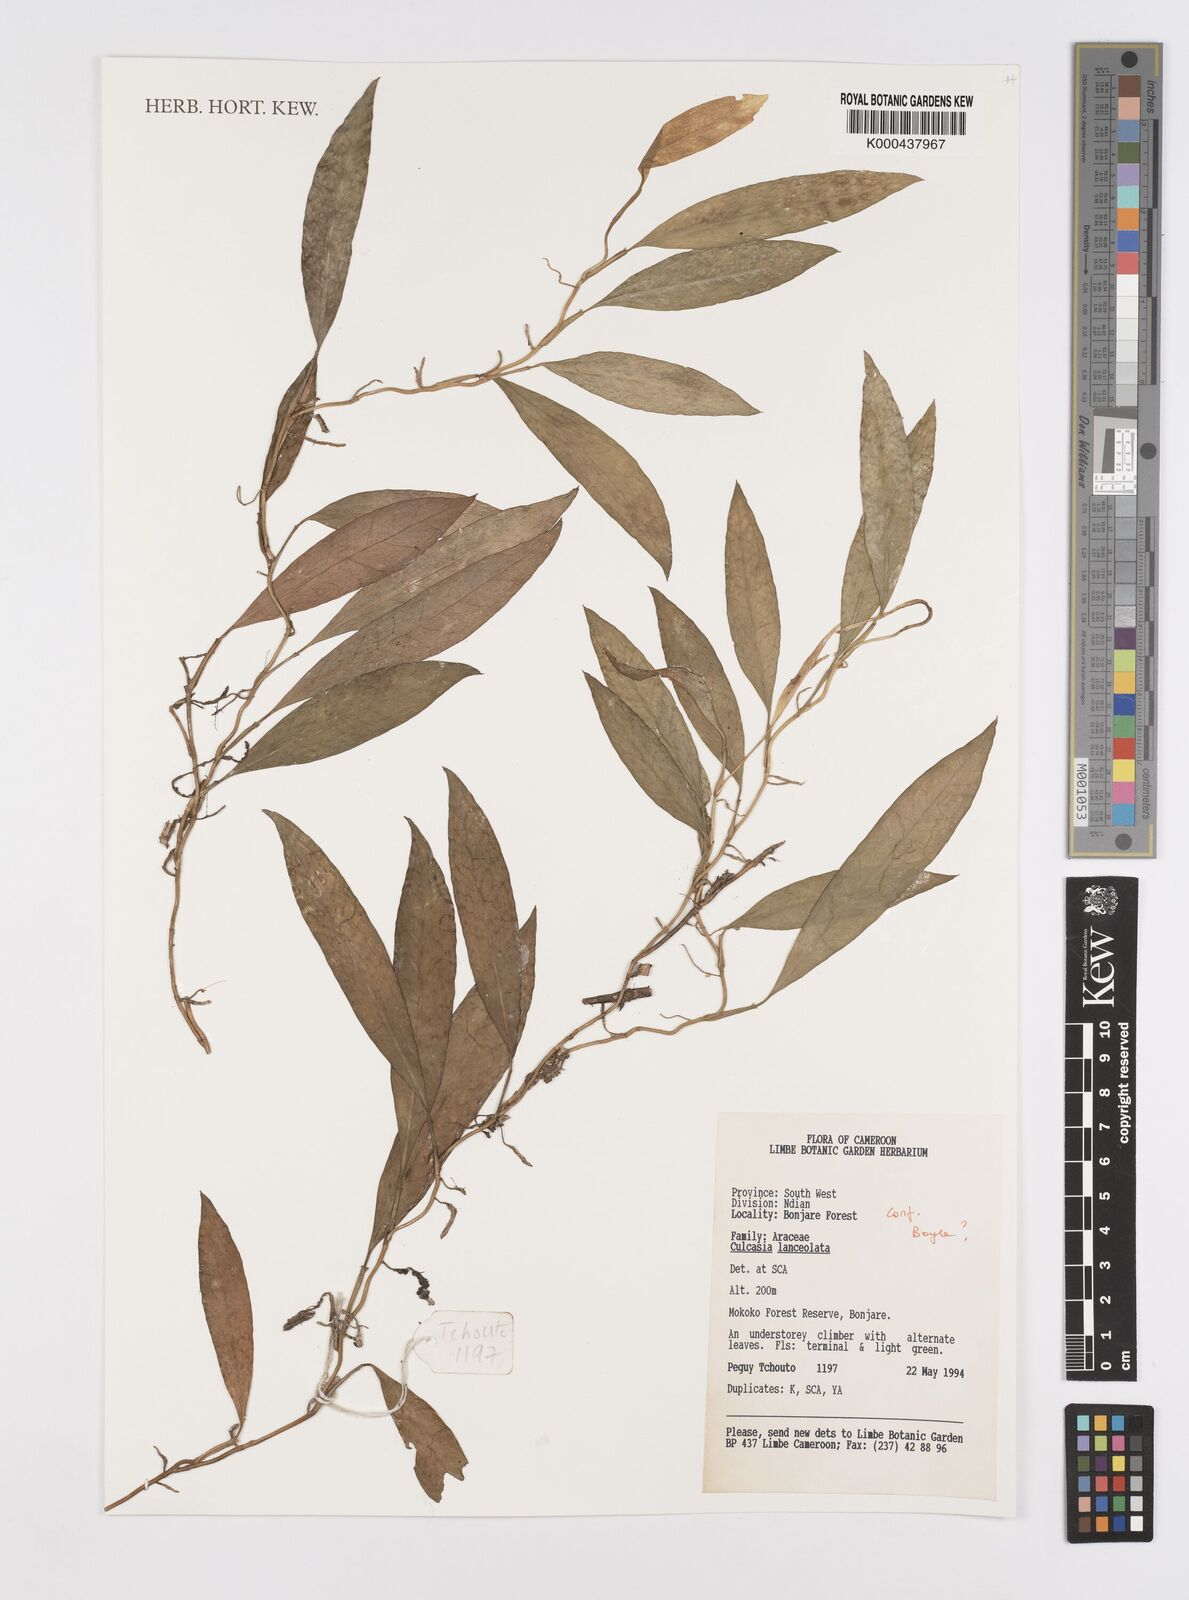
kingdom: Plantae
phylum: Tracheophyta
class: Liliopsida
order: Alismatales
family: Araceae
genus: Culcasia
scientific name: Culcasia lanceolata
